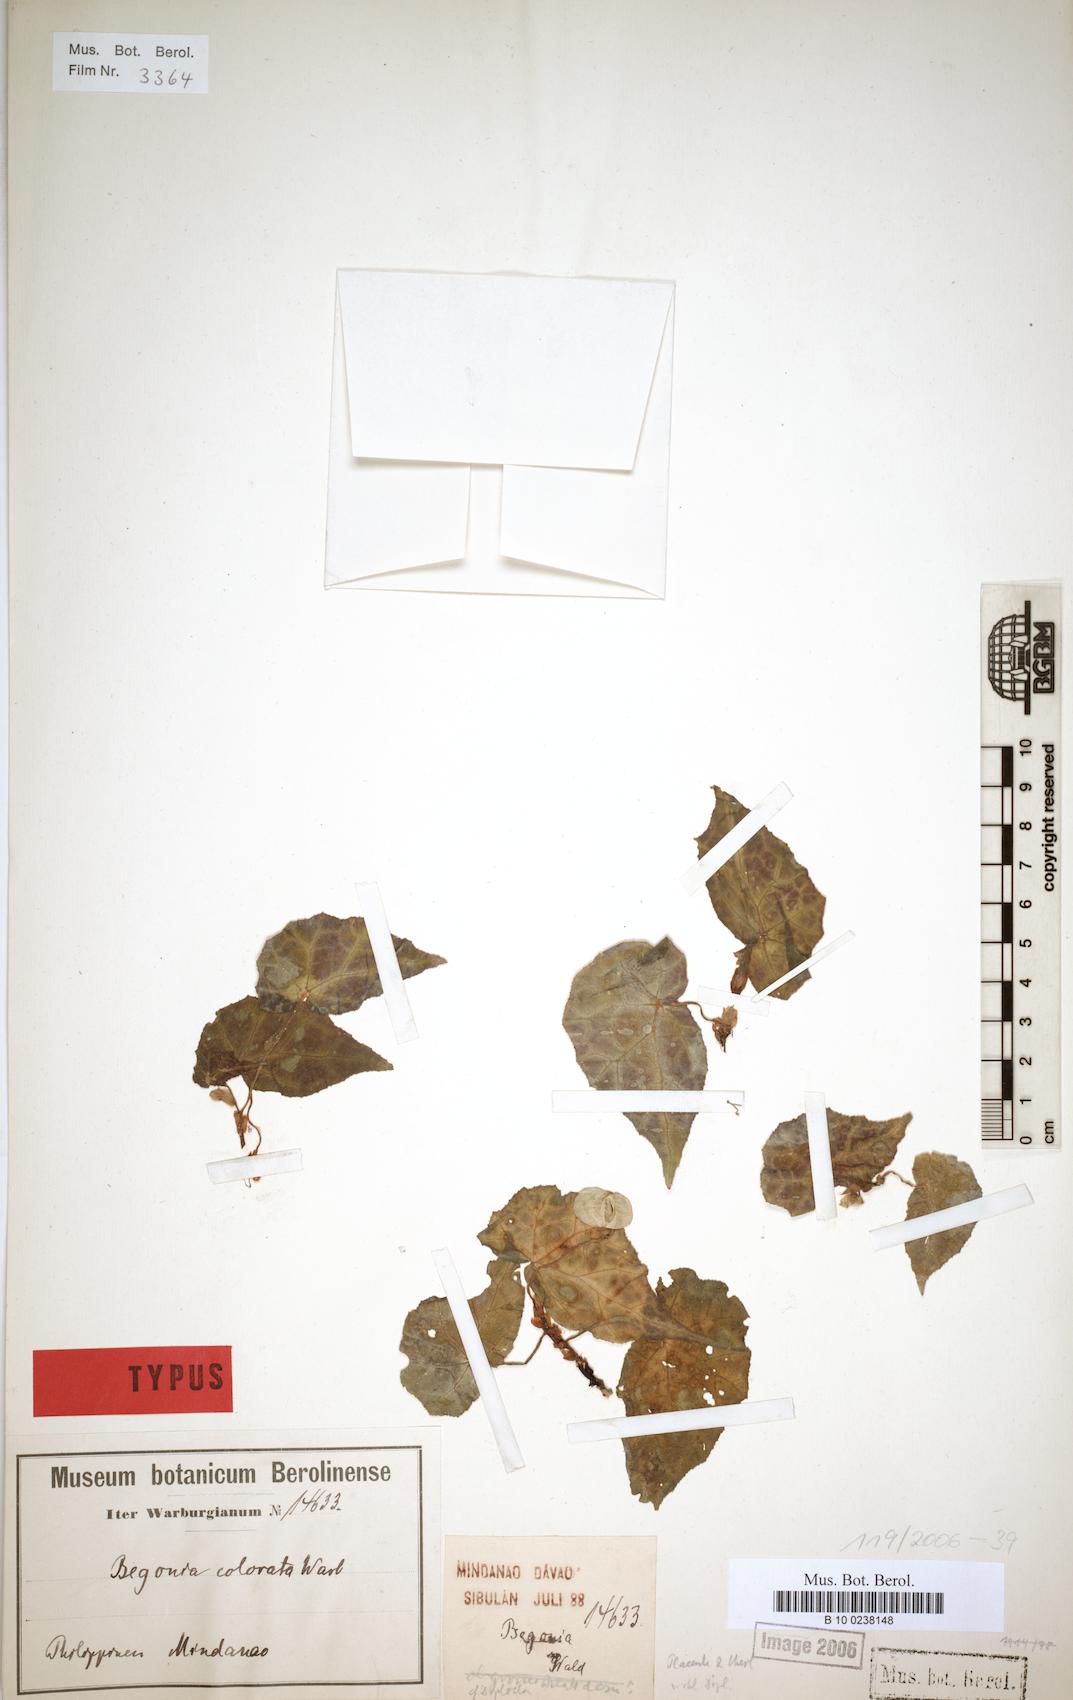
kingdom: Plantae
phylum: Tracheophyta
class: Magnoliopsida
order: Cucurbitales
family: Begoniaceae
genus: Begonia
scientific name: Begonia colorata
